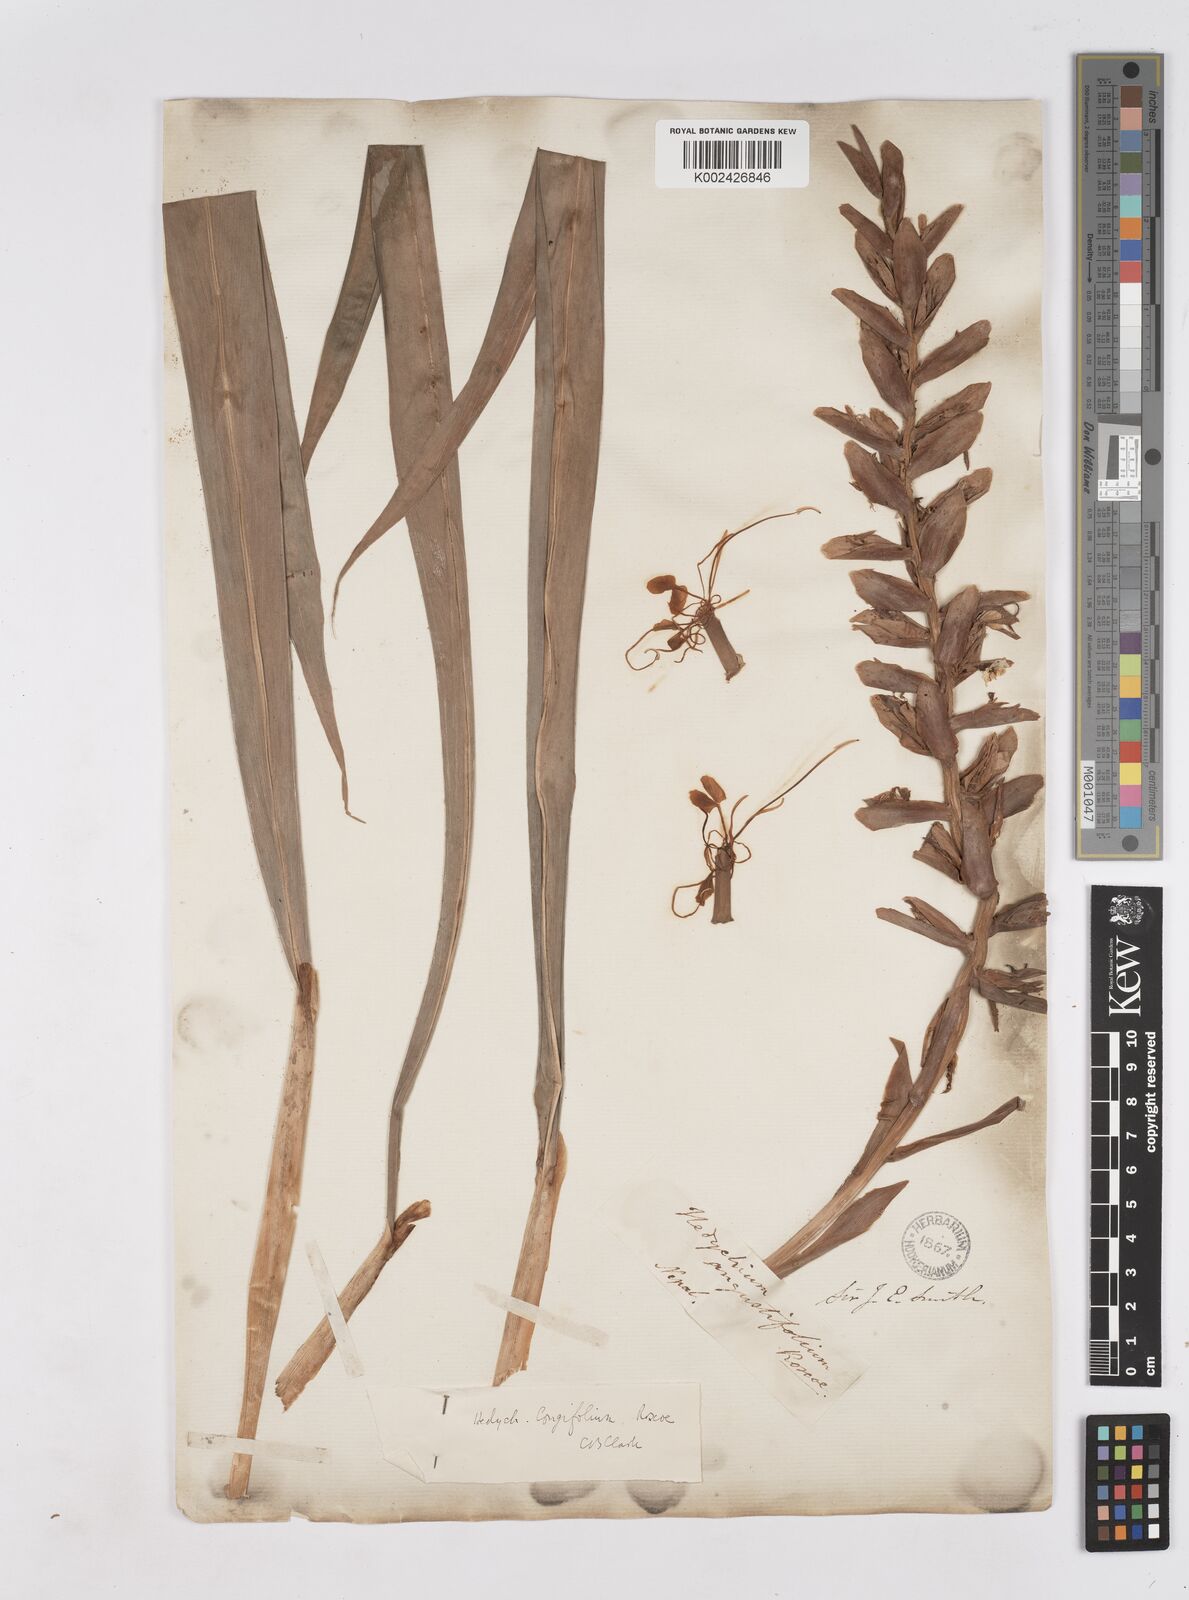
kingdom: Plantae
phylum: Tracheophyta
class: Liliopsida
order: Zingiberales
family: Zingiberaceae
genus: Hedychium
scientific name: Hedychium coccineum
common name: Red ginger-lily
